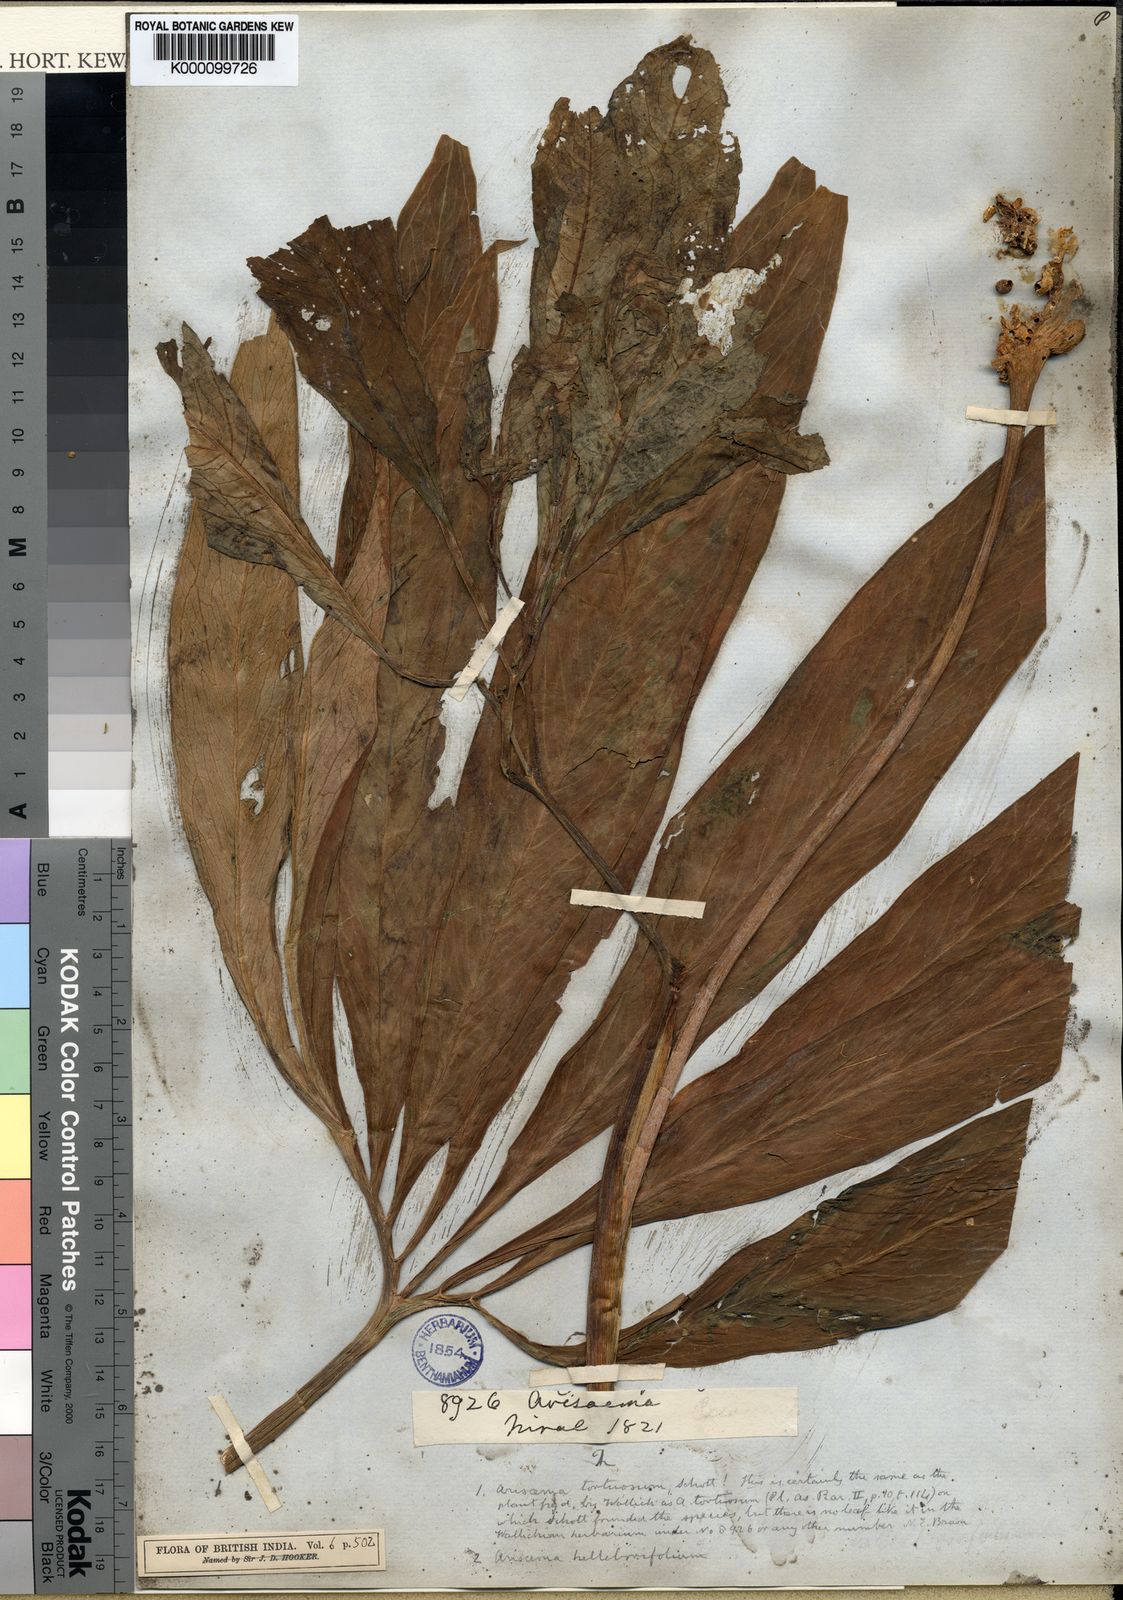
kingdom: Plantae
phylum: Tracheophyta
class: Liliopsida
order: Alismatales
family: Araceae
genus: Arisaema
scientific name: Arisaema tortuosum
